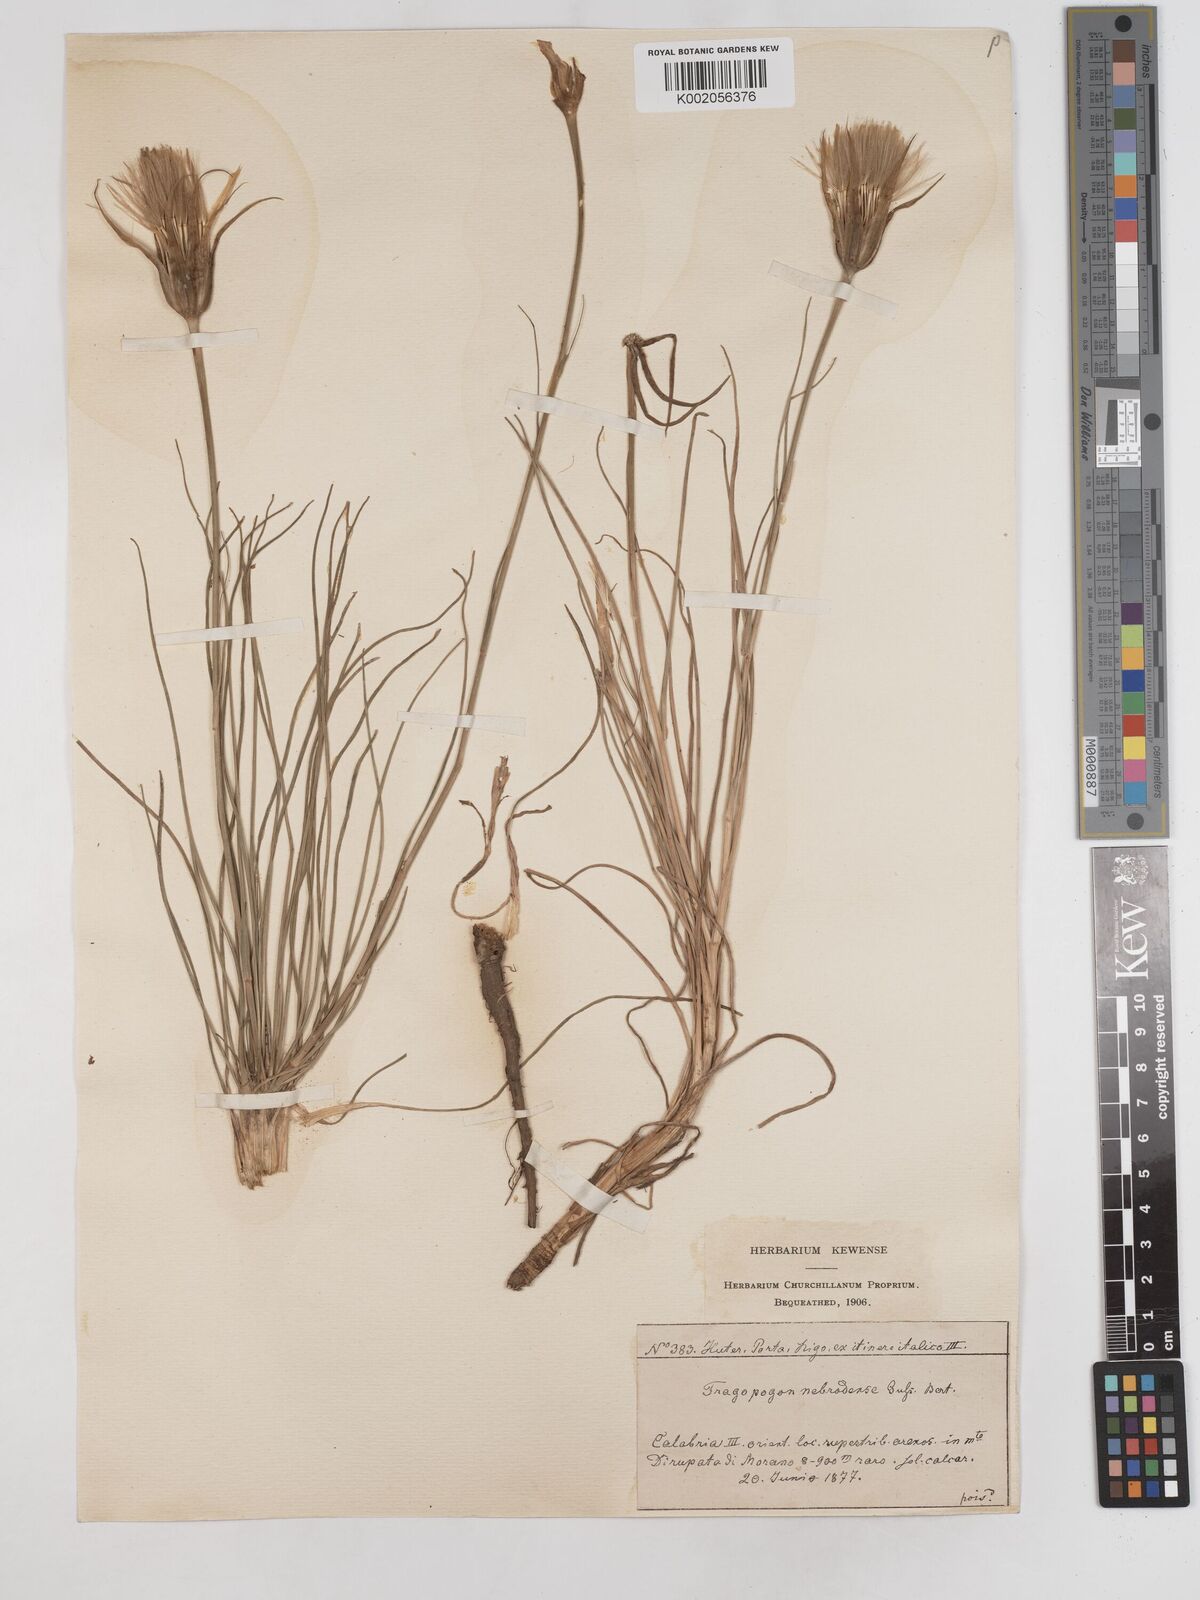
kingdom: Plantae
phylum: Tracheophyta
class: Magnoliopsida
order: Asterales
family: Asteraceae
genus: Tragopogon
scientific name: Tragopogon crocifolius
